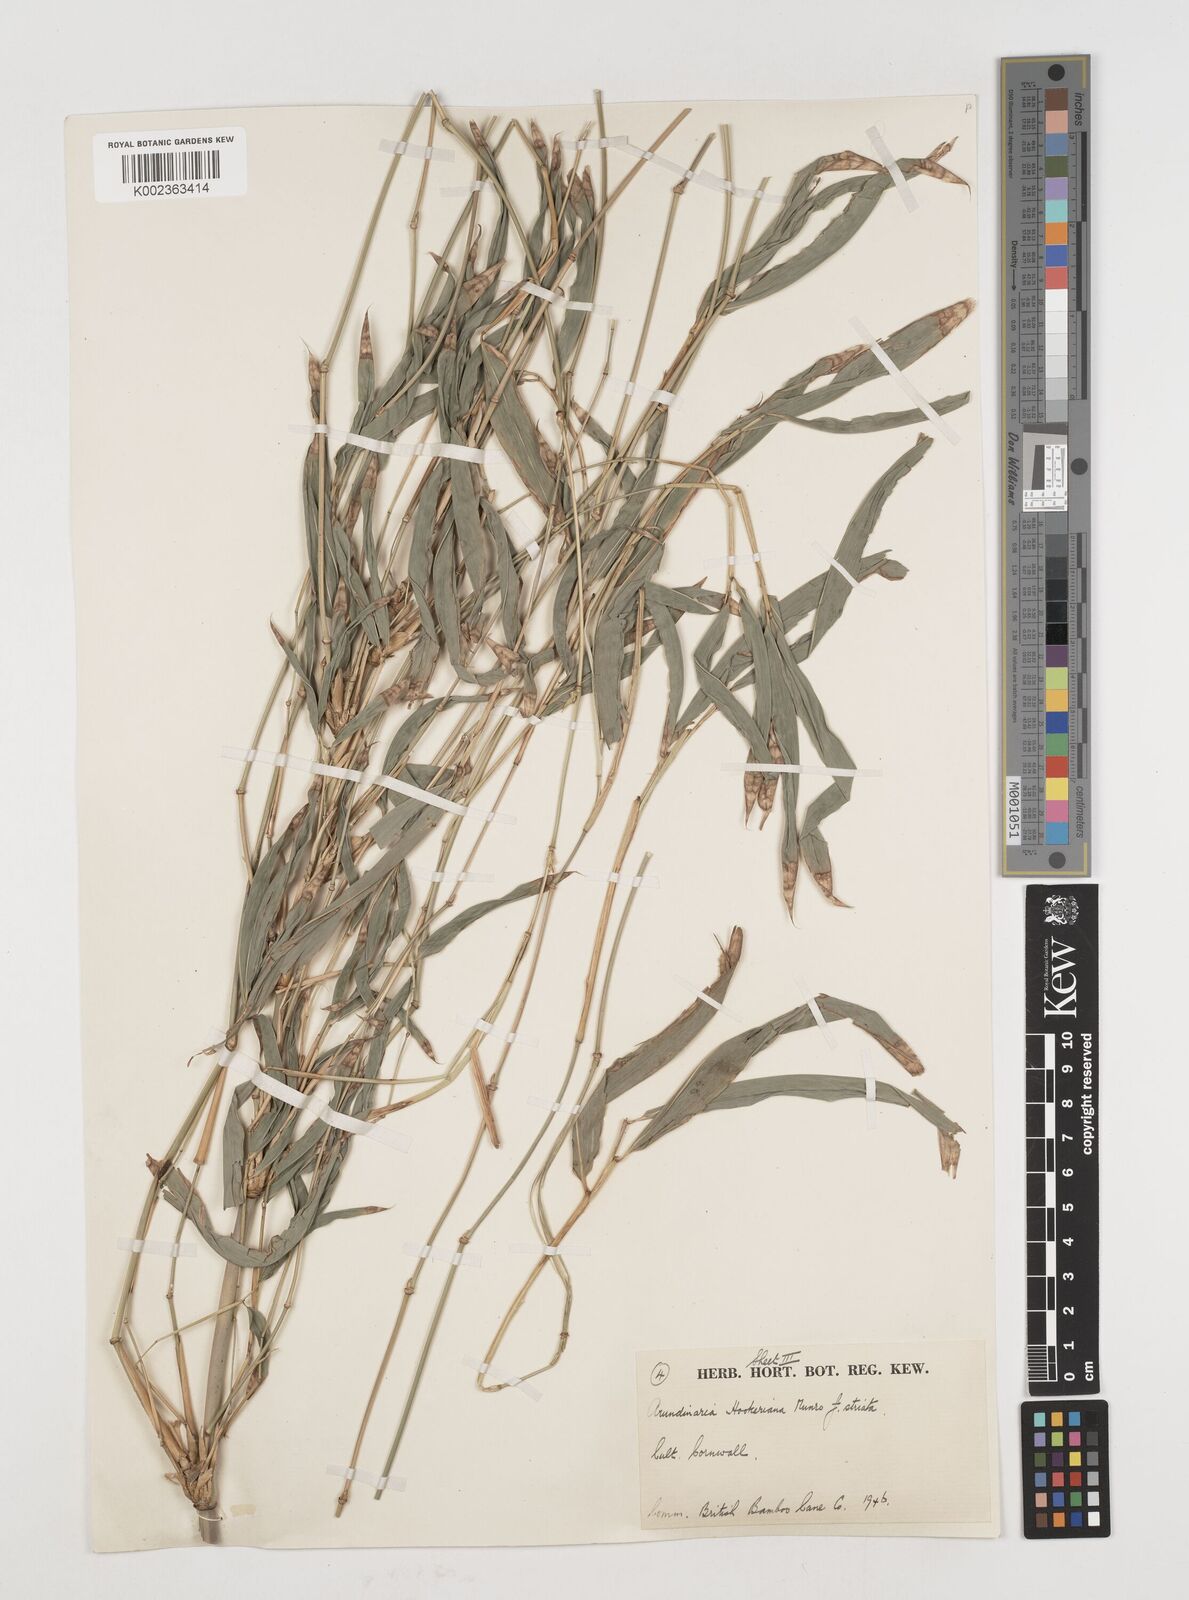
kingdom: Plantae
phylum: Tracheophyta
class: Liliopsida
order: Poales
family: Poaceae
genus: Himalayacalamus
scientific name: Himalayacalamus falconeri
